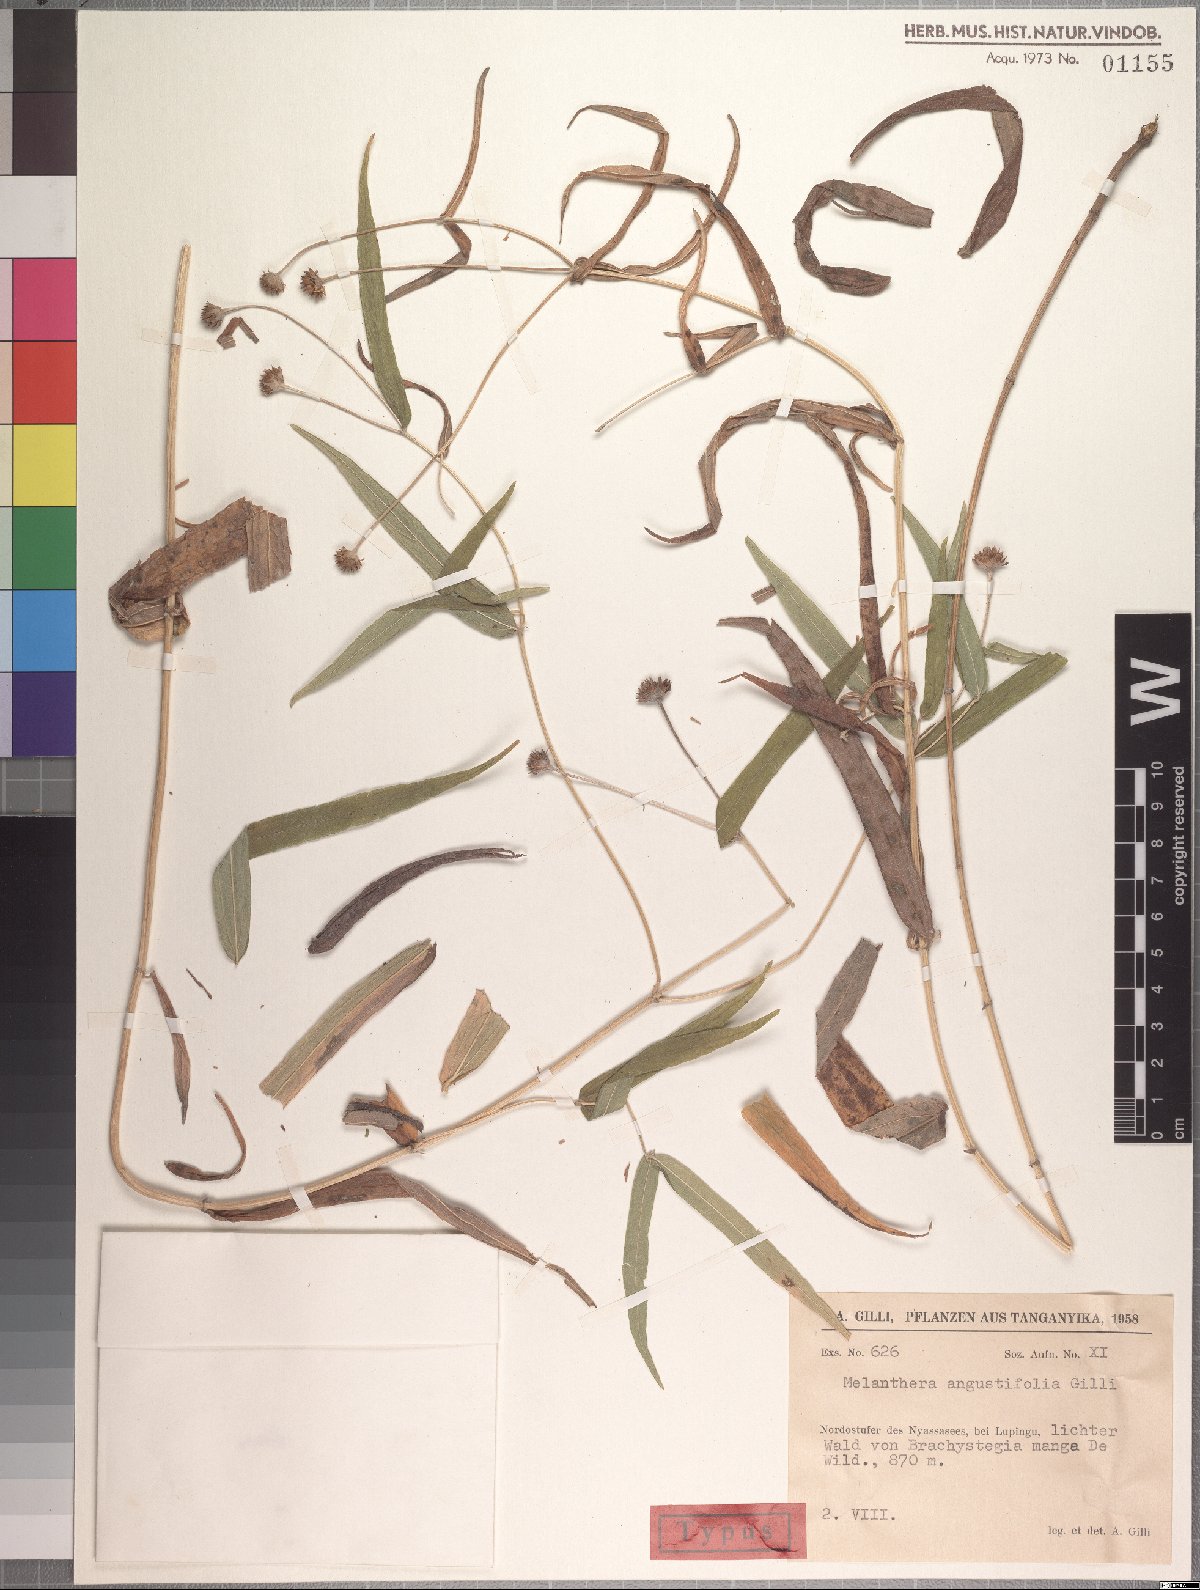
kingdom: Plantae
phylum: Tracheophyta
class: Magnoliopsida
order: Asterales
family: Asteraceae
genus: Melanthera
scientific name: Melanthera angustifolia
